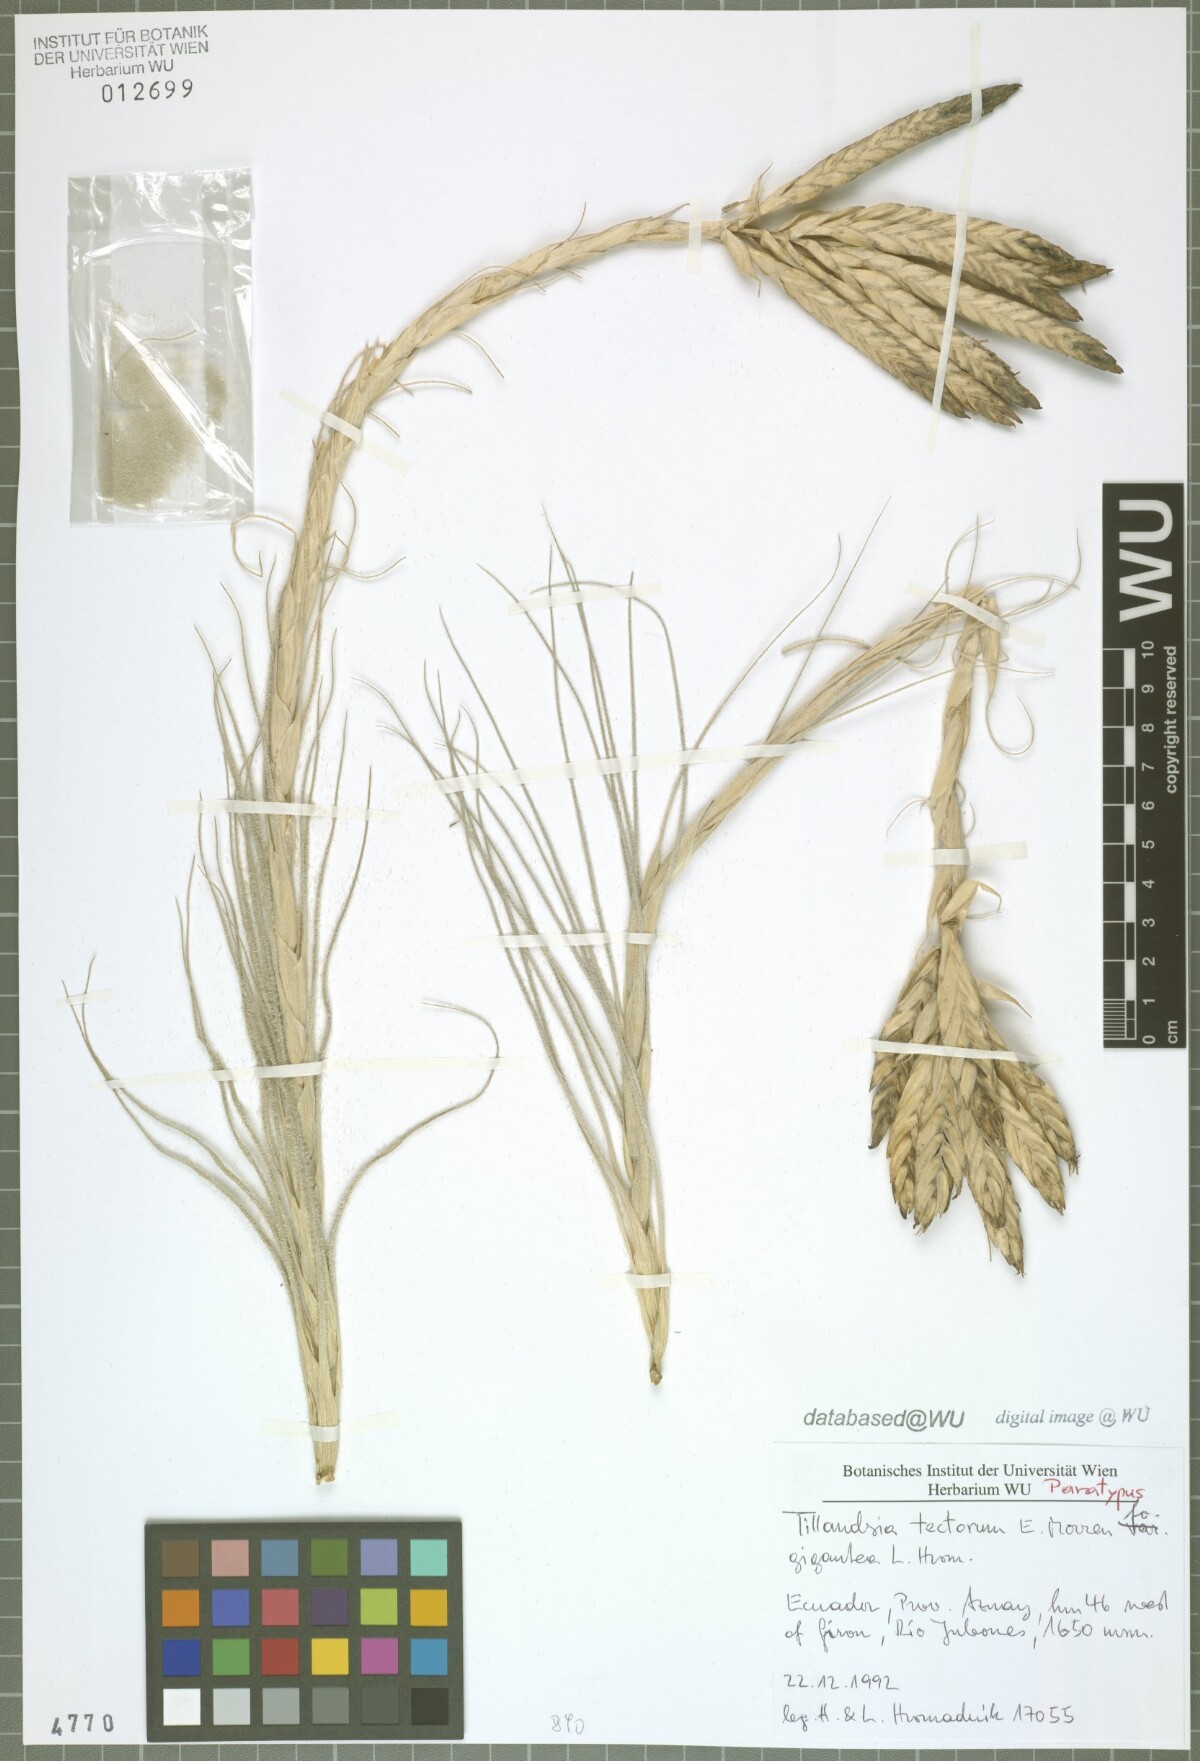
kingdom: Plantae
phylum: Tracheophyta
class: Liliopsida
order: Poales
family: Bromeliaceae
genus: Tillandsia
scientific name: Tillandsia tectorum
